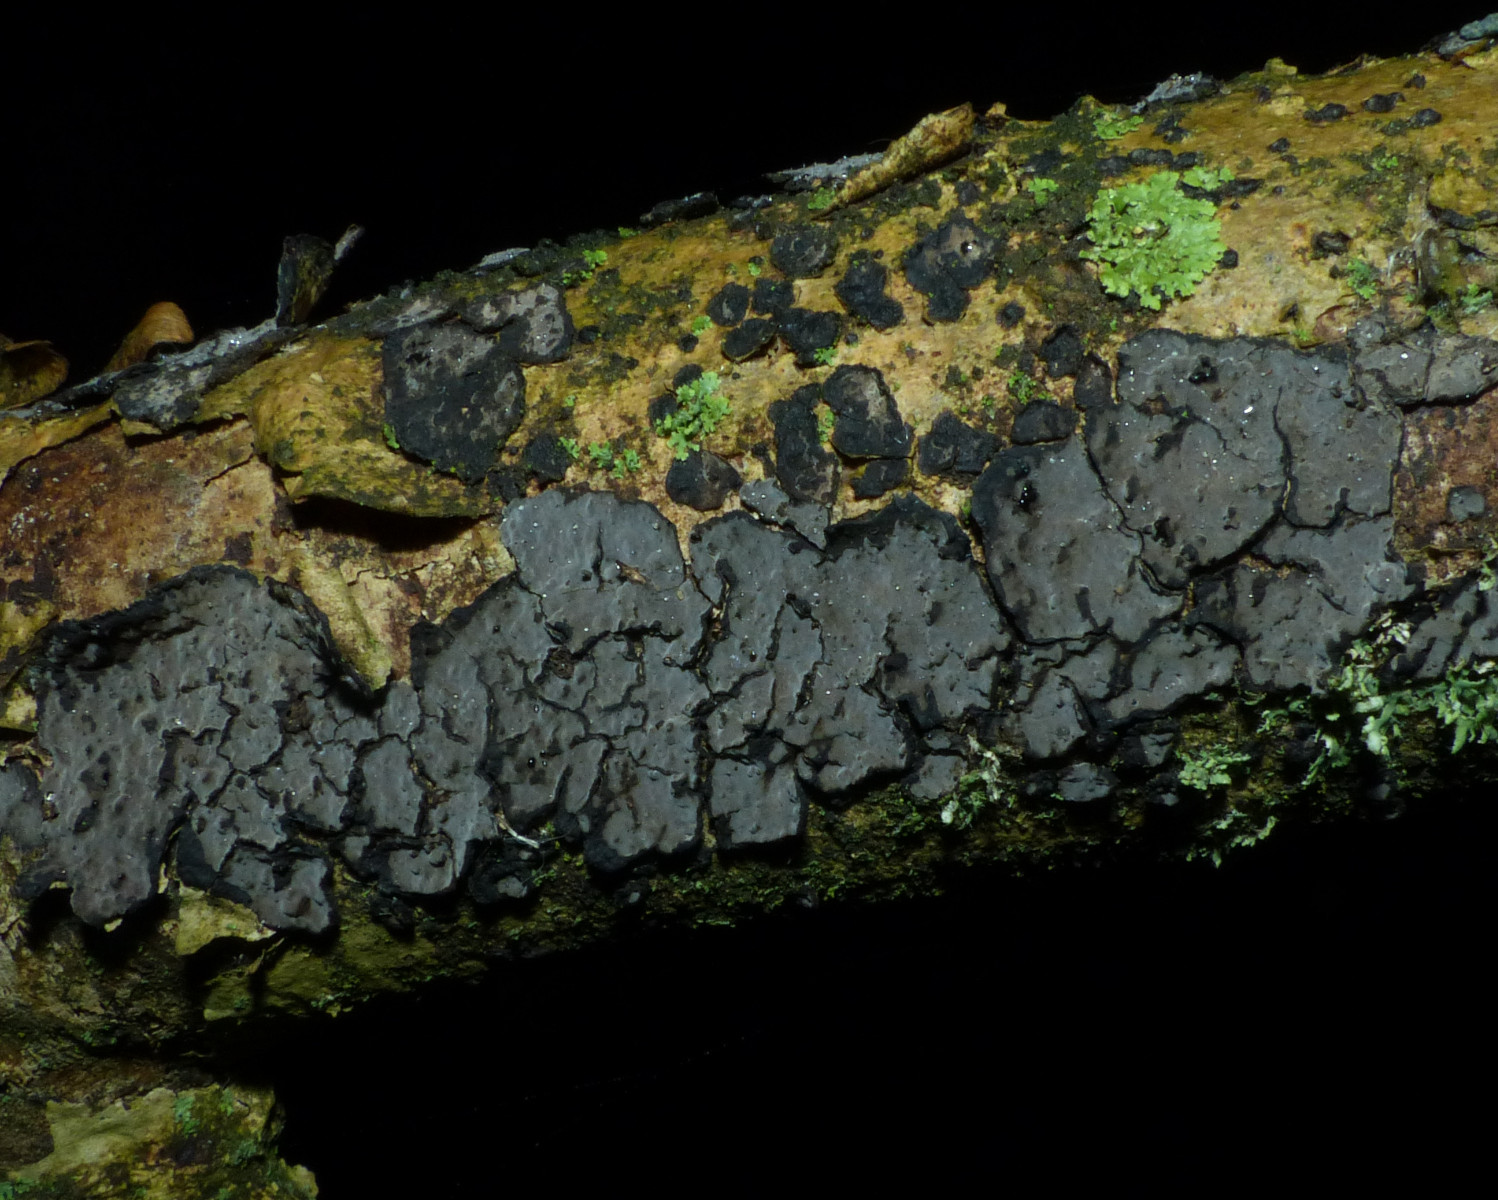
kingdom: Fungi
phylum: Basidiomycota
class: Agaricomycetes
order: Russulales
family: Peniophoraceae
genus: Peniophora
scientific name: Peniophora limitata
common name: mørkrandet voksskind
